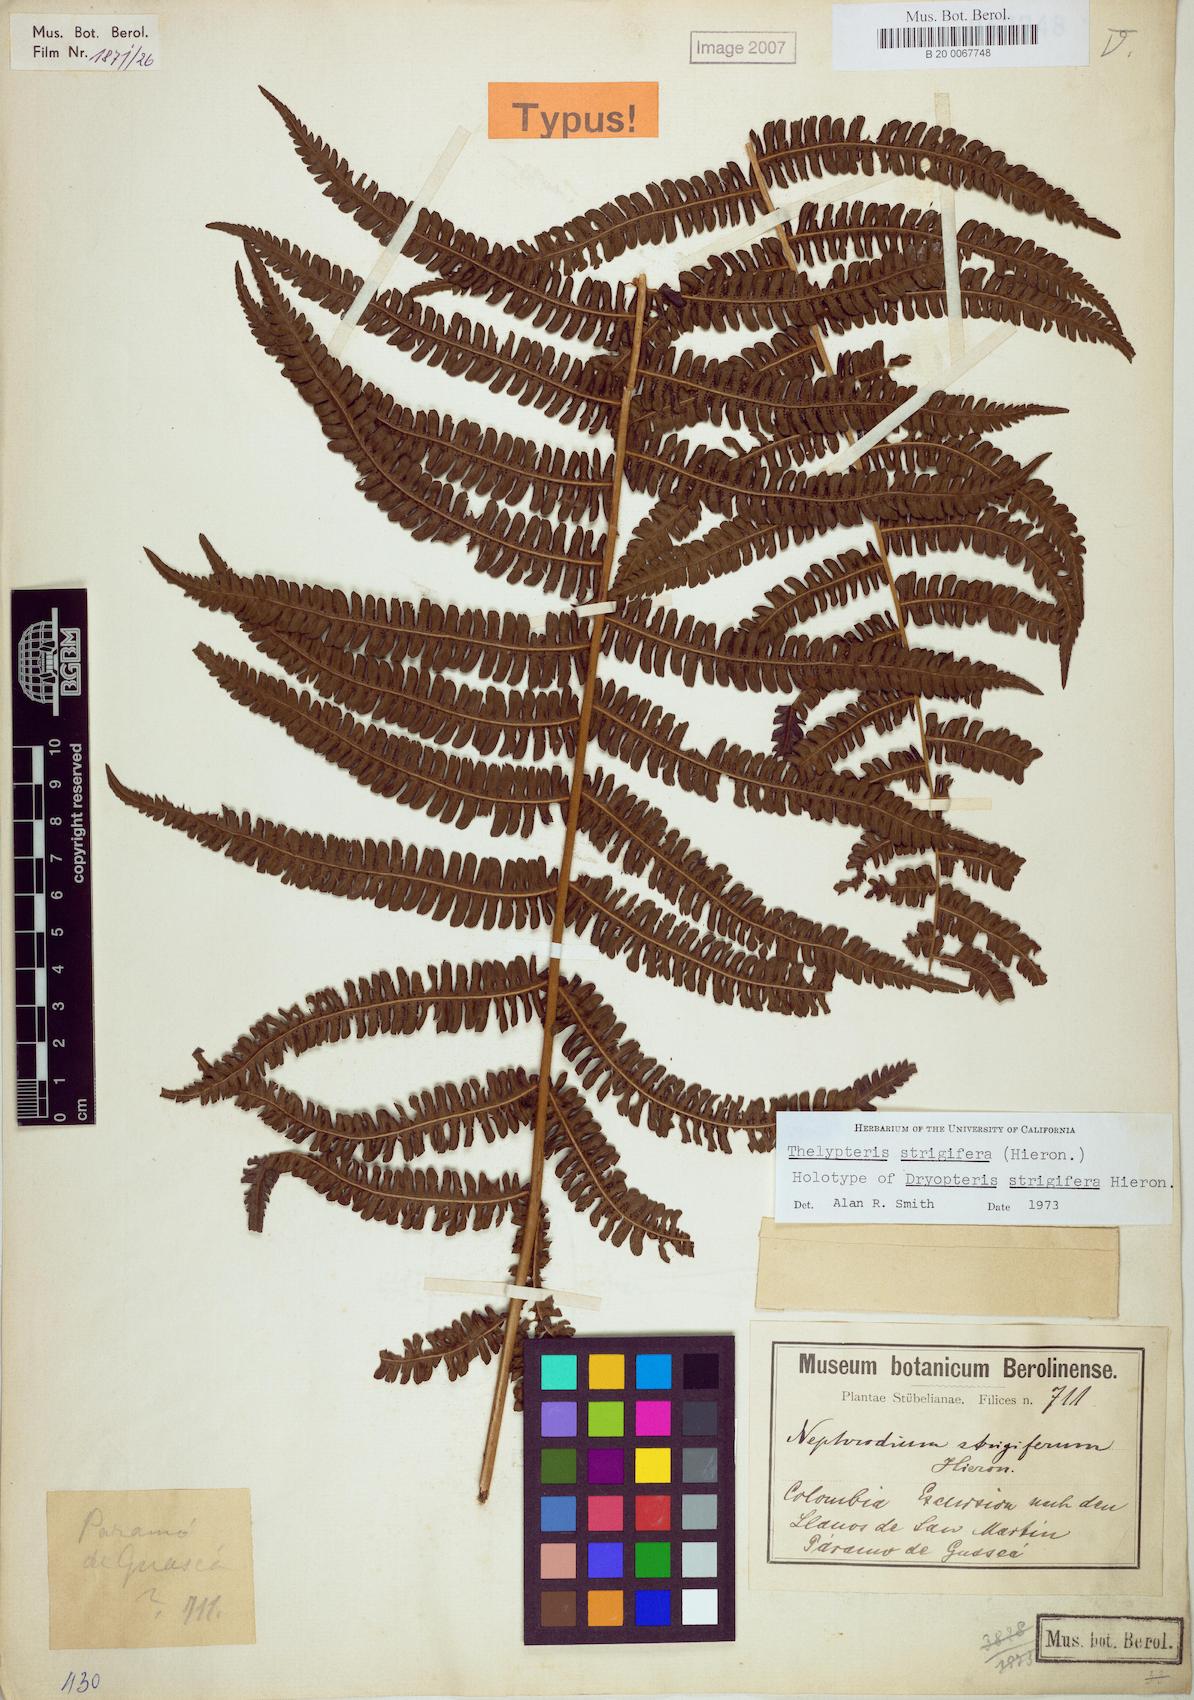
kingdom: Plantae
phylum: Tracheophyta
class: Polypodiopsida
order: Polypodiales
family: Thelypteridaceae
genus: Thelypteris
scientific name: Thelypteris
